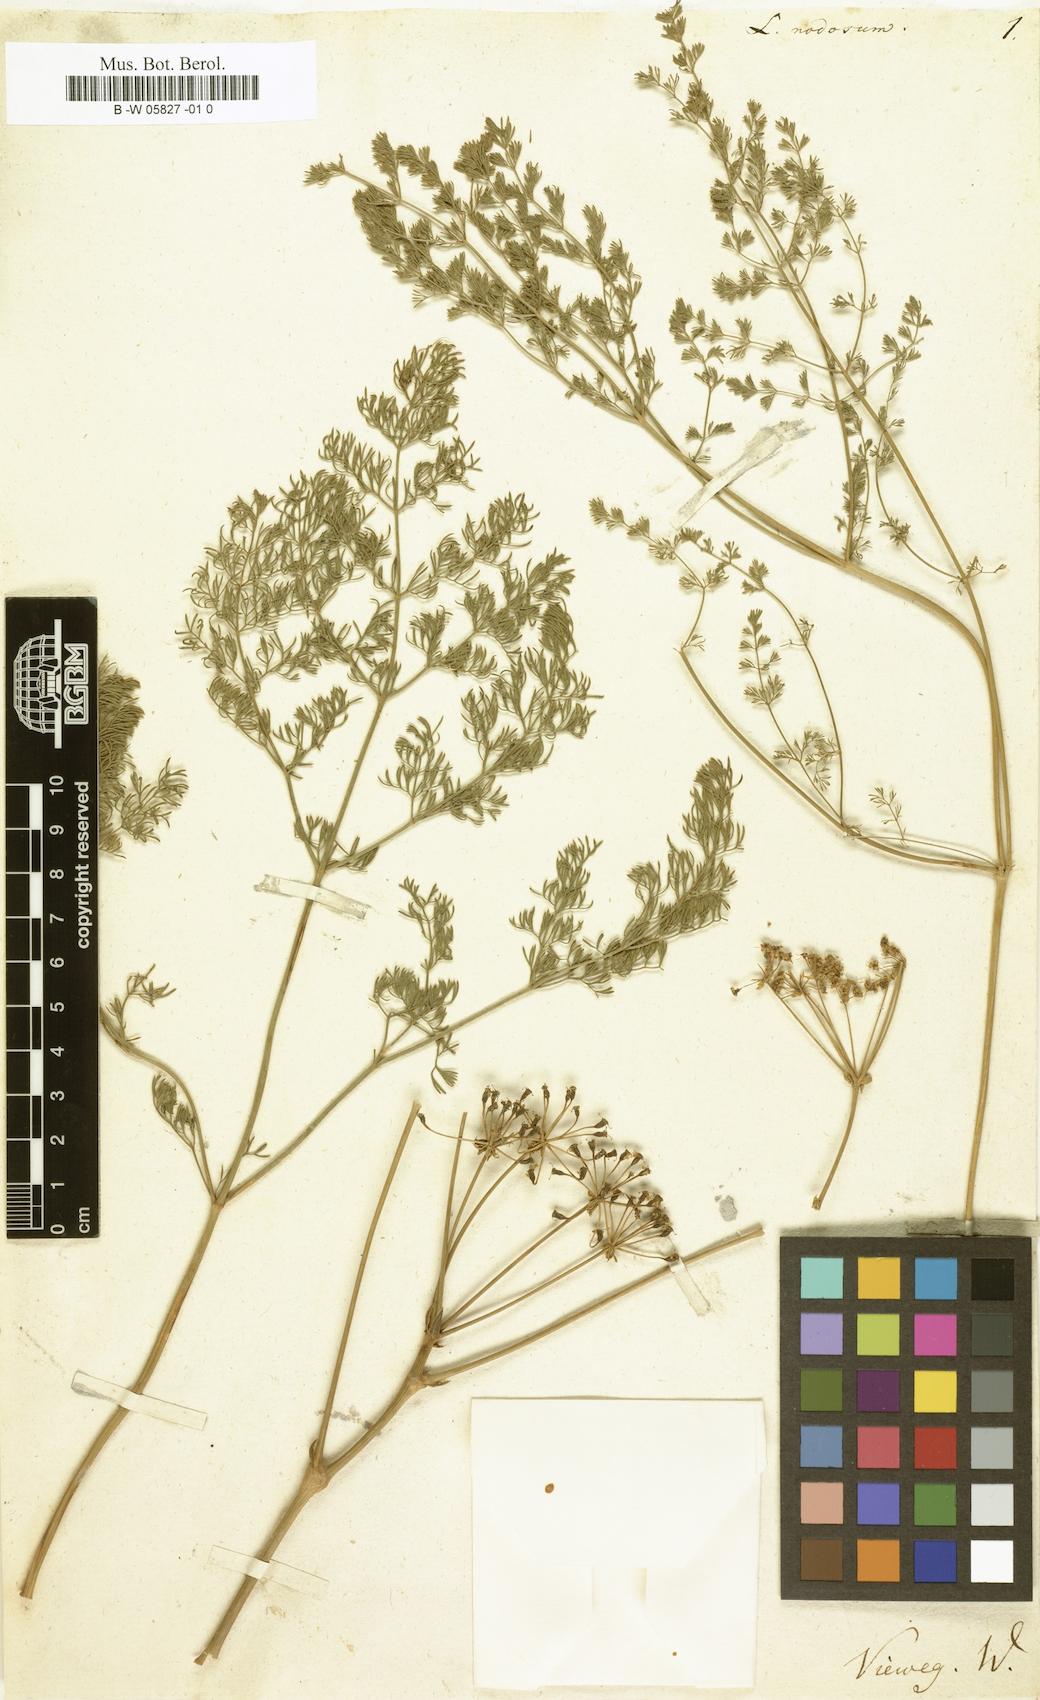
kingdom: Plantae
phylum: Tracheophyta
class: Magnoliopsida
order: Apiales
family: Apiaceae
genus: Ferulago
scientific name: Ferulago nodosa
